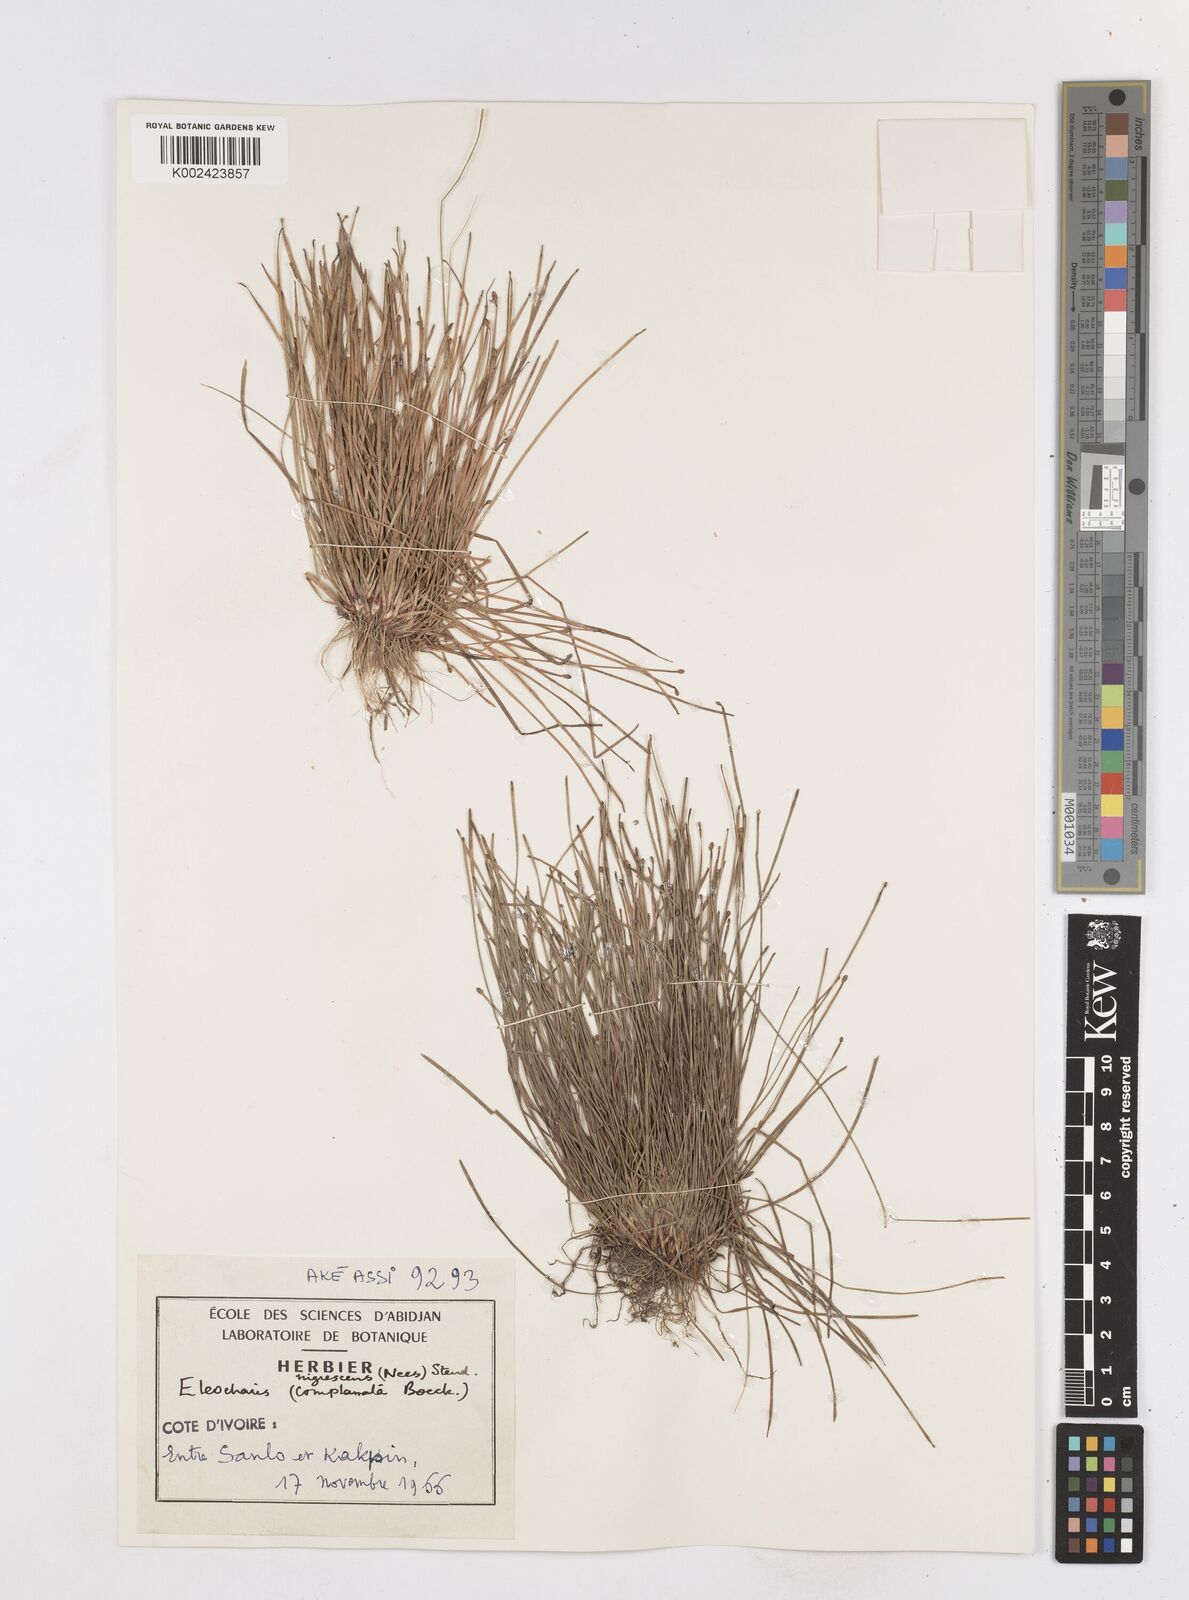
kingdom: Plantae
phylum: Tracheophyta
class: Liliopsida
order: Poales
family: Cyperaceae
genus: Eleocharis
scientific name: Eleocharis complanata
